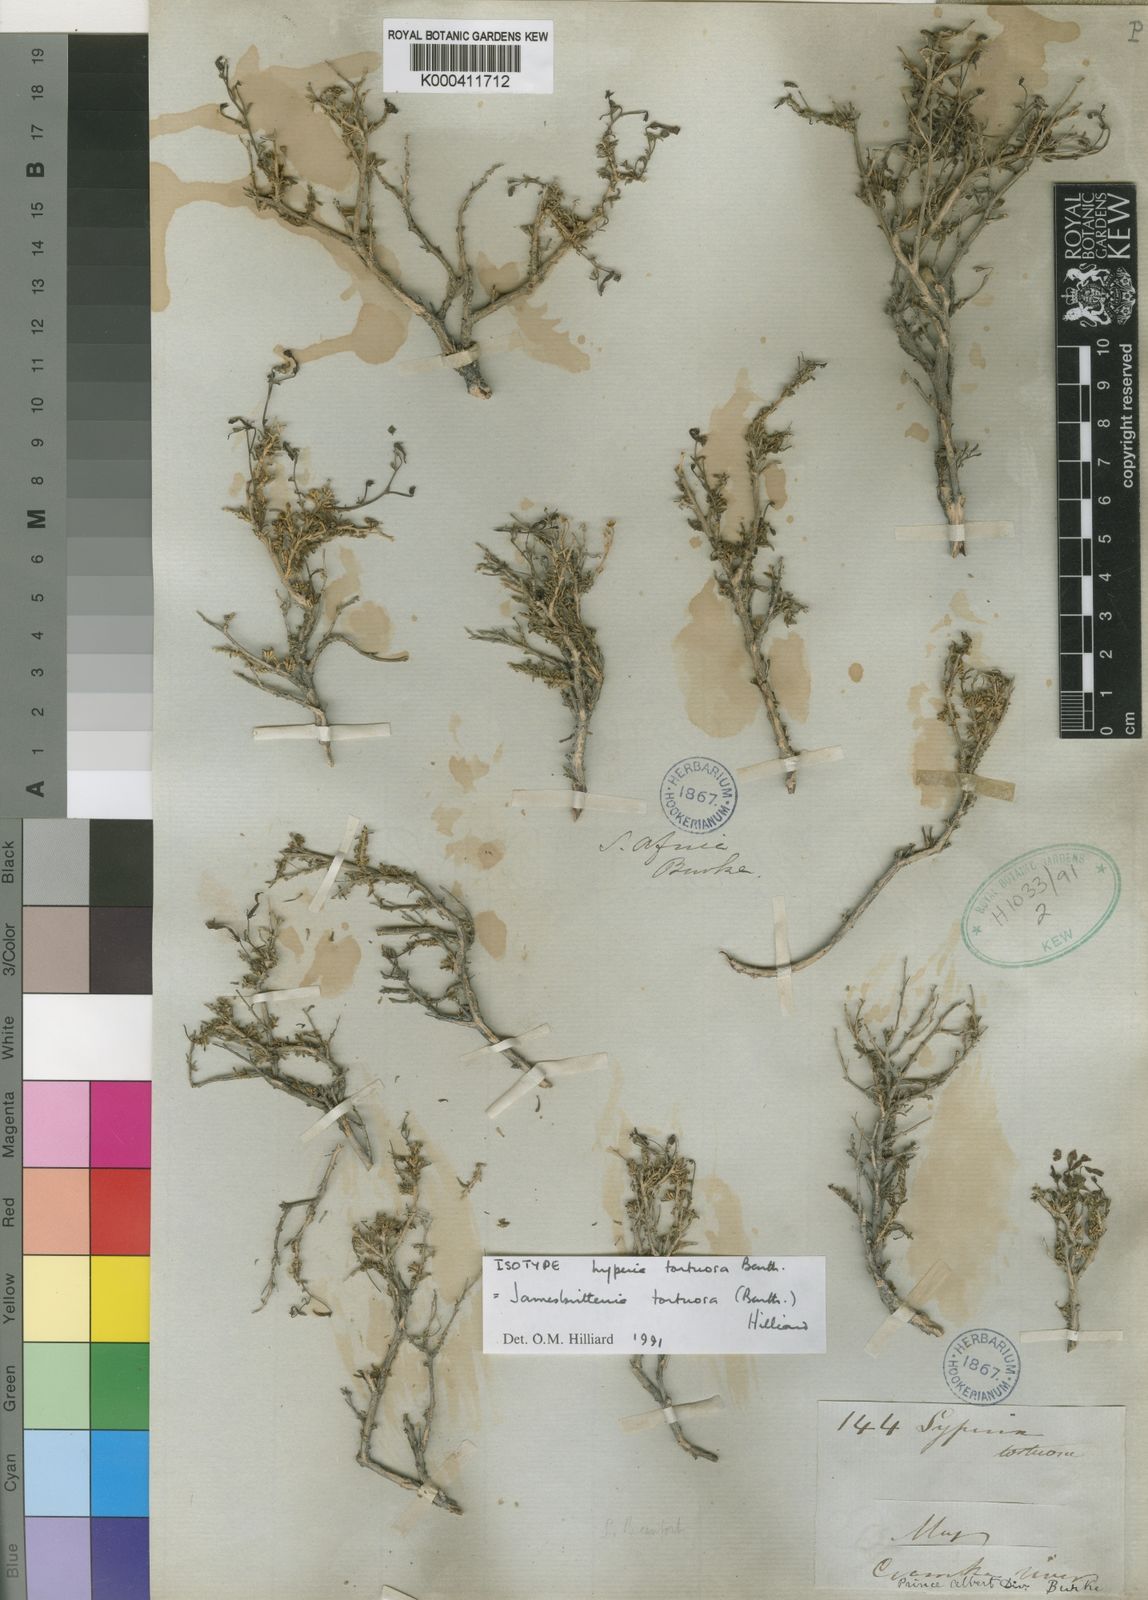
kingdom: Plantae
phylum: Tracheophyta
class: Magnoliopsida
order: Lamiales
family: Scrophulariaceae
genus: Jamesbrittenia
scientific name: Jamesbrittenia tortuosa
